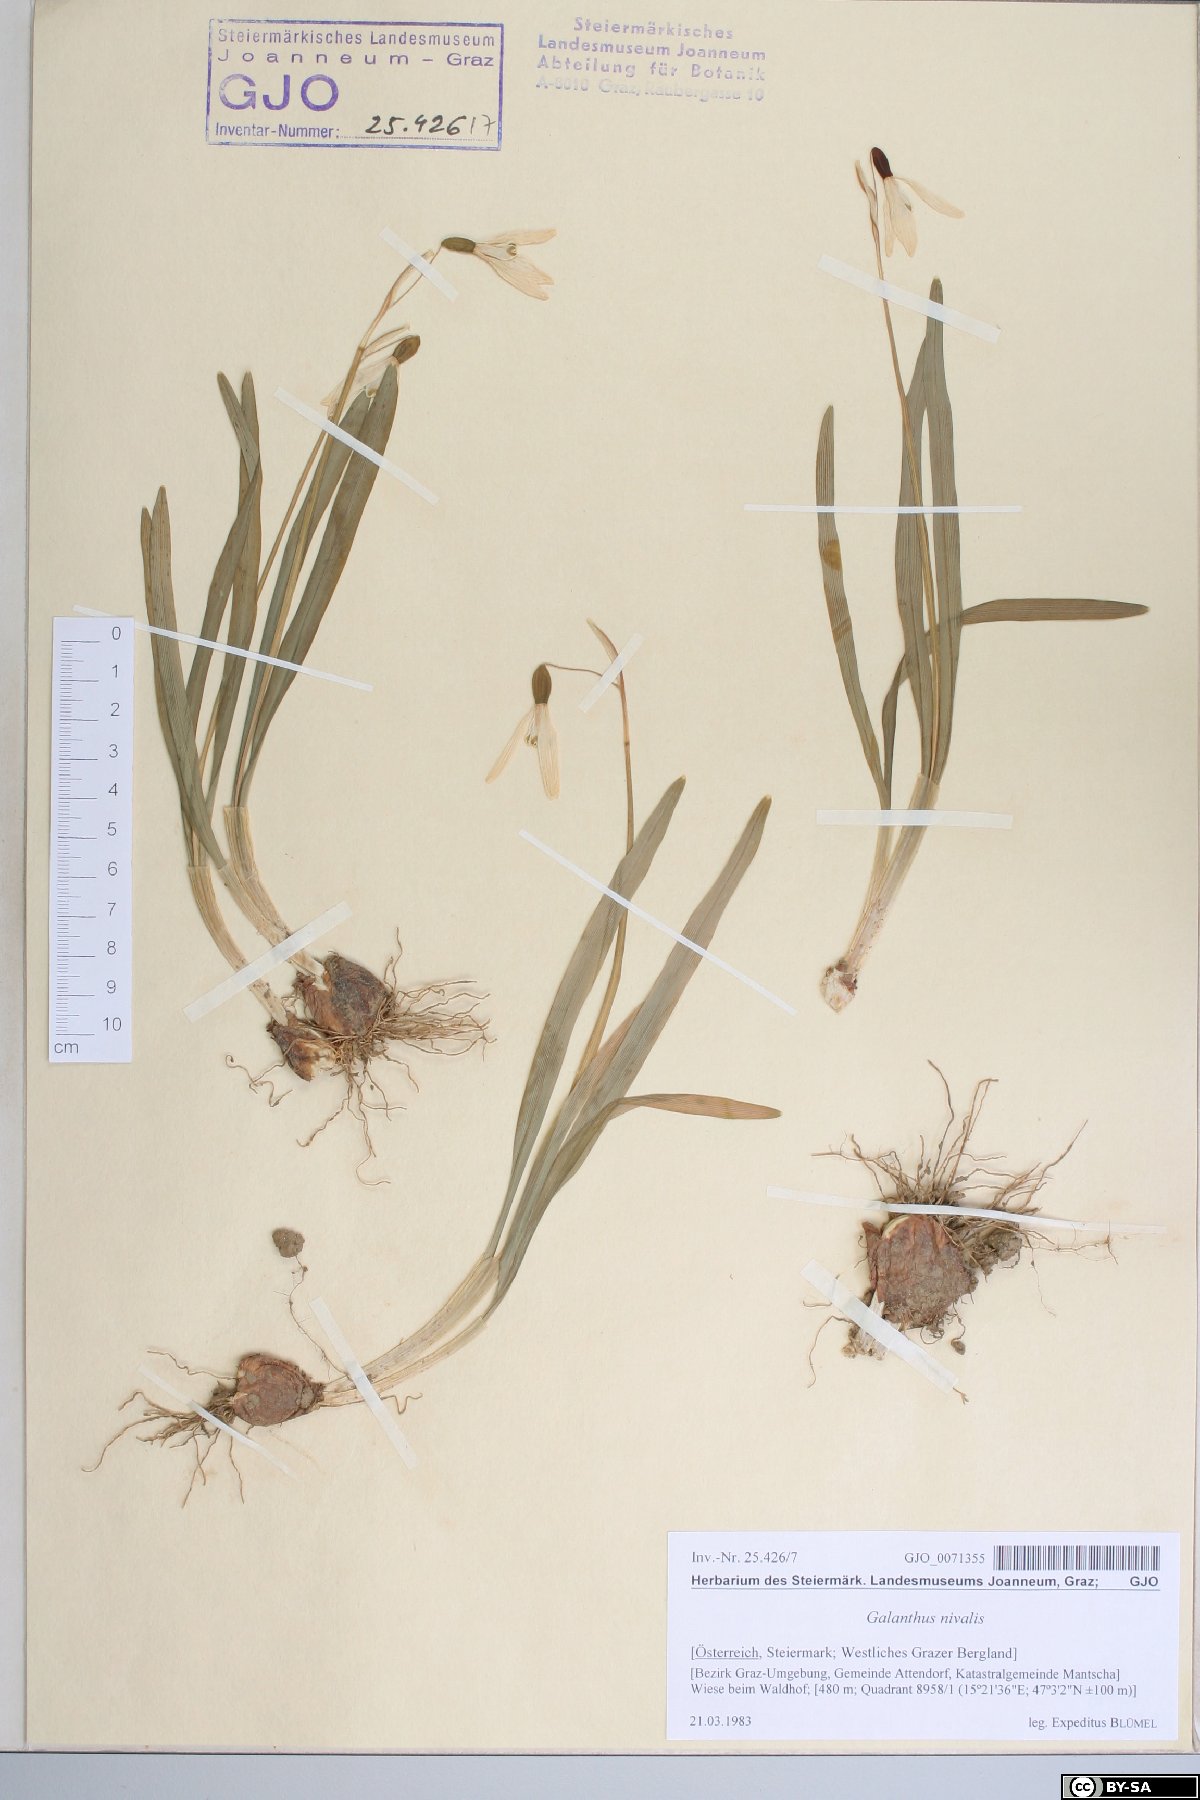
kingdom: Plantae
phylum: Tracheophyta
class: Liliopsida
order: Asparagales
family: Amaryllidaceae
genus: Galanthus
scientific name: Galanthus nivalis
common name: Snowdrop
